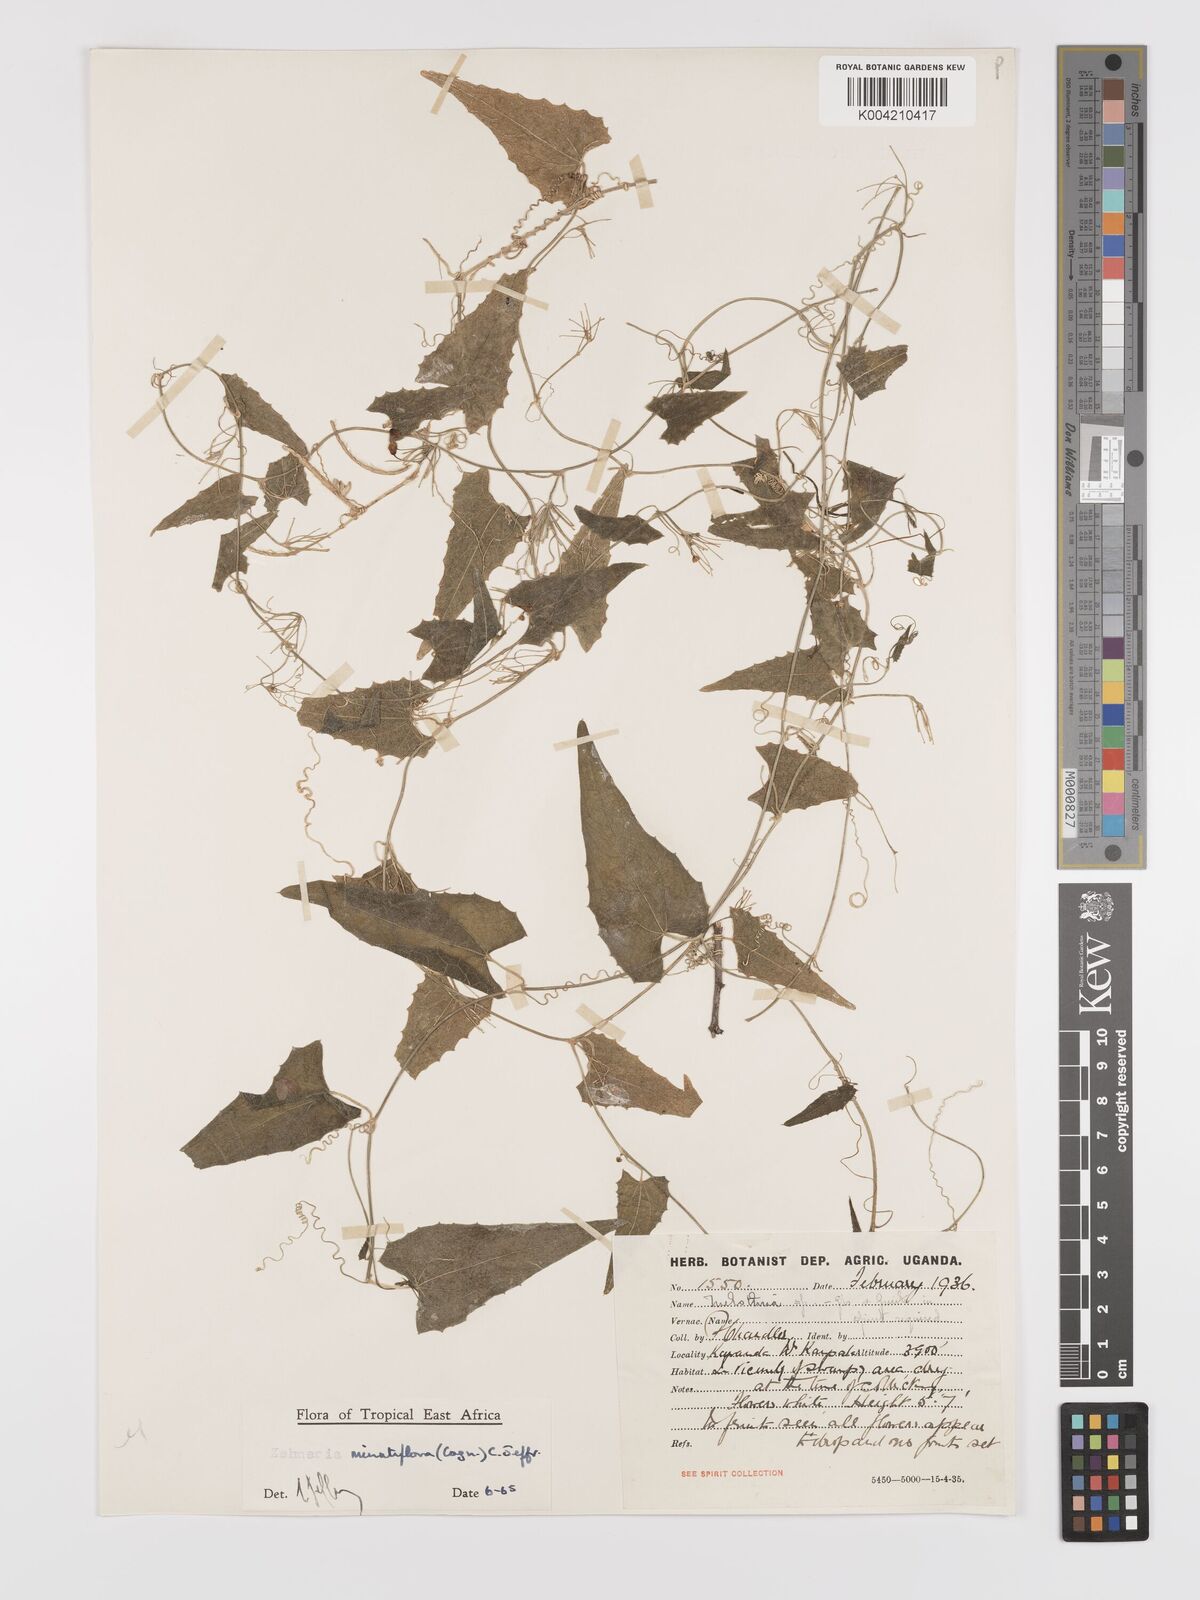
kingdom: Plantae
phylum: Tracheophyta
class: Magnoliopsida
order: Cucurbitales
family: Cucurbitaceae
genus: Zehneria
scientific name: Zehneria minutiflora
